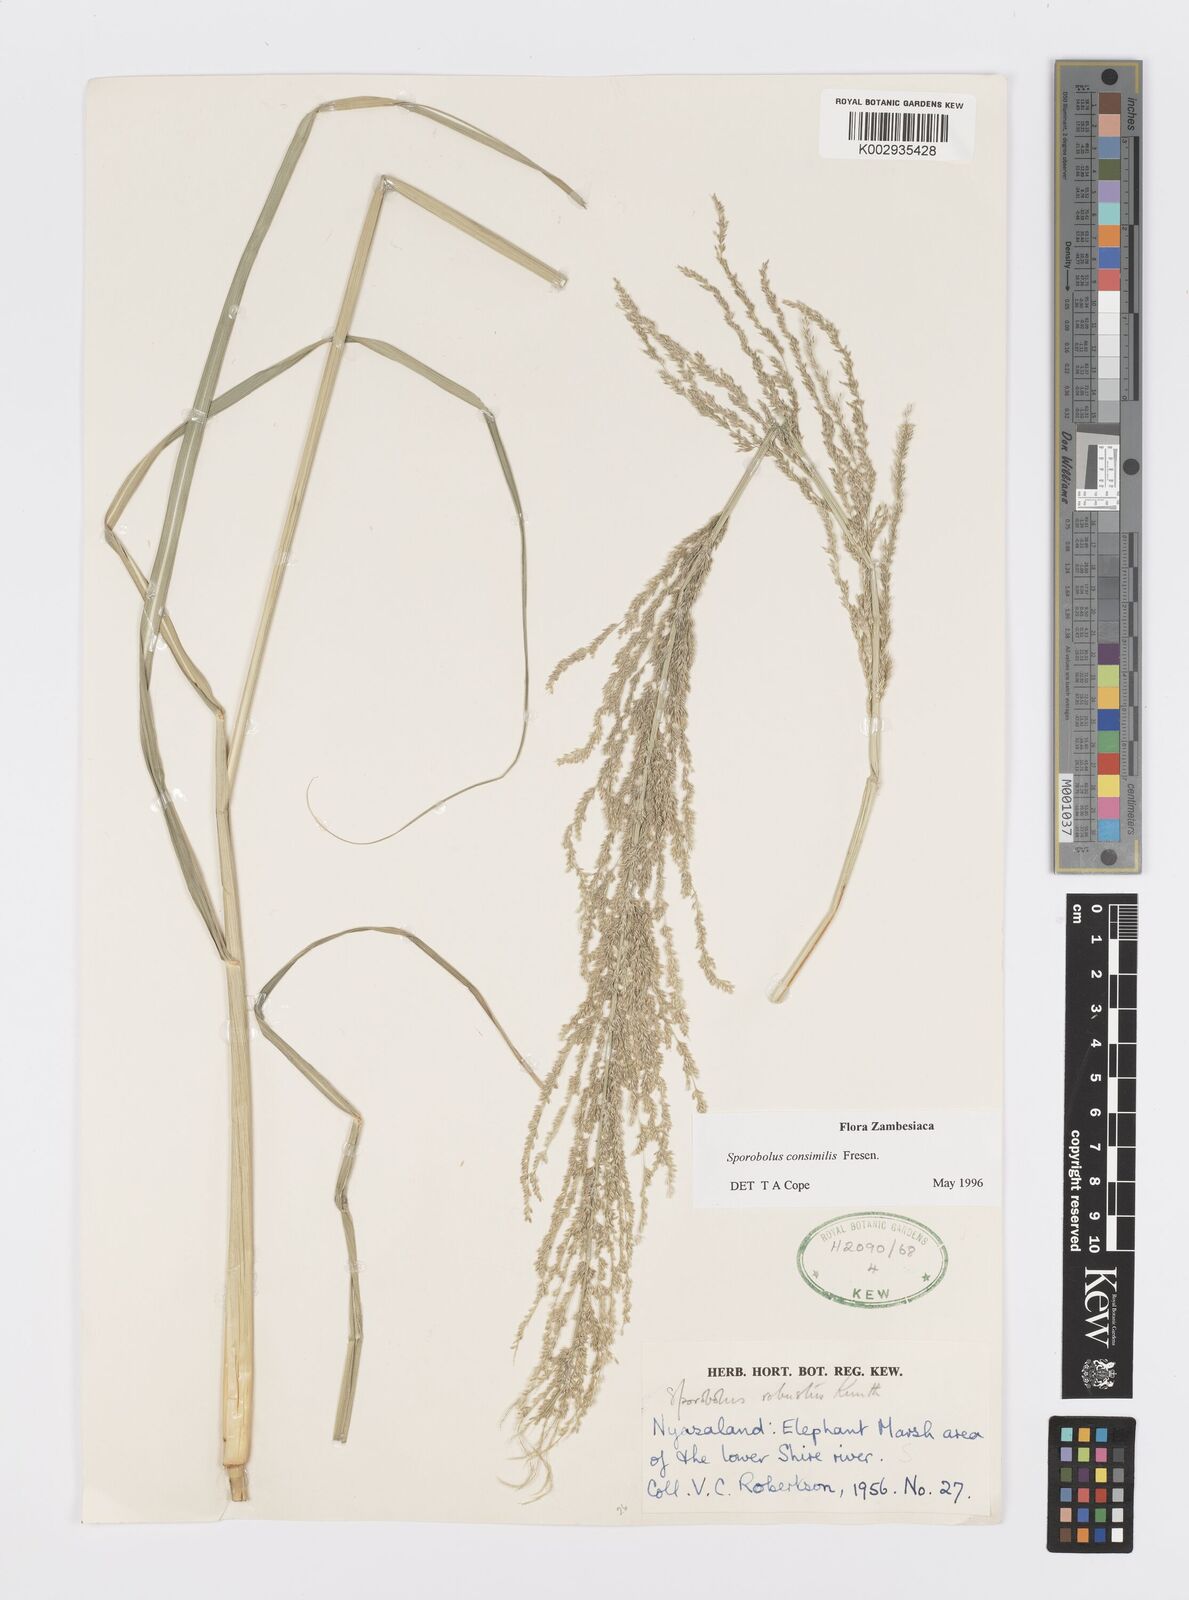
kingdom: Plantae
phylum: Tracheophyta
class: Liliopsida
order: Poales
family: Poaceae
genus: Sporobolus
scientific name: Sporobolus consimilis
